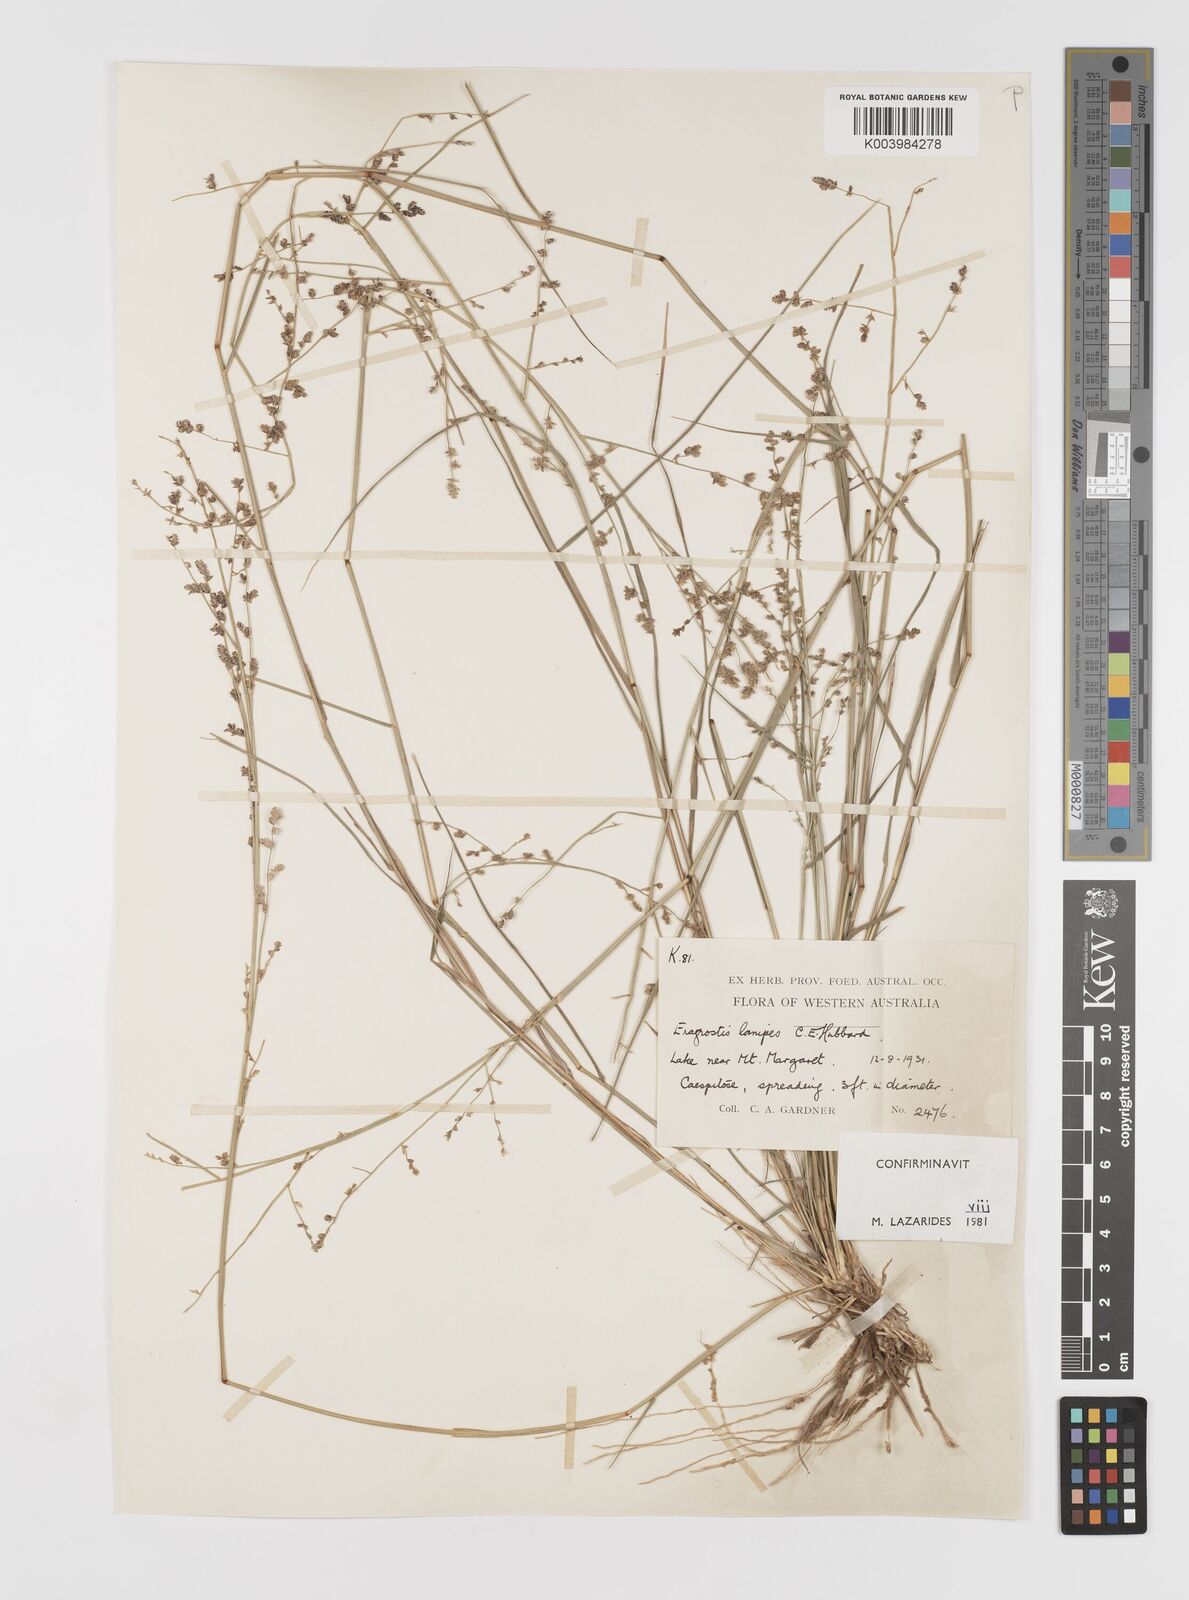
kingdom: Plantae
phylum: Tracheophyta
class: Liliopsida
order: Poales
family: Poaceae
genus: Eragrostis
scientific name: Eragrostis lanipes
